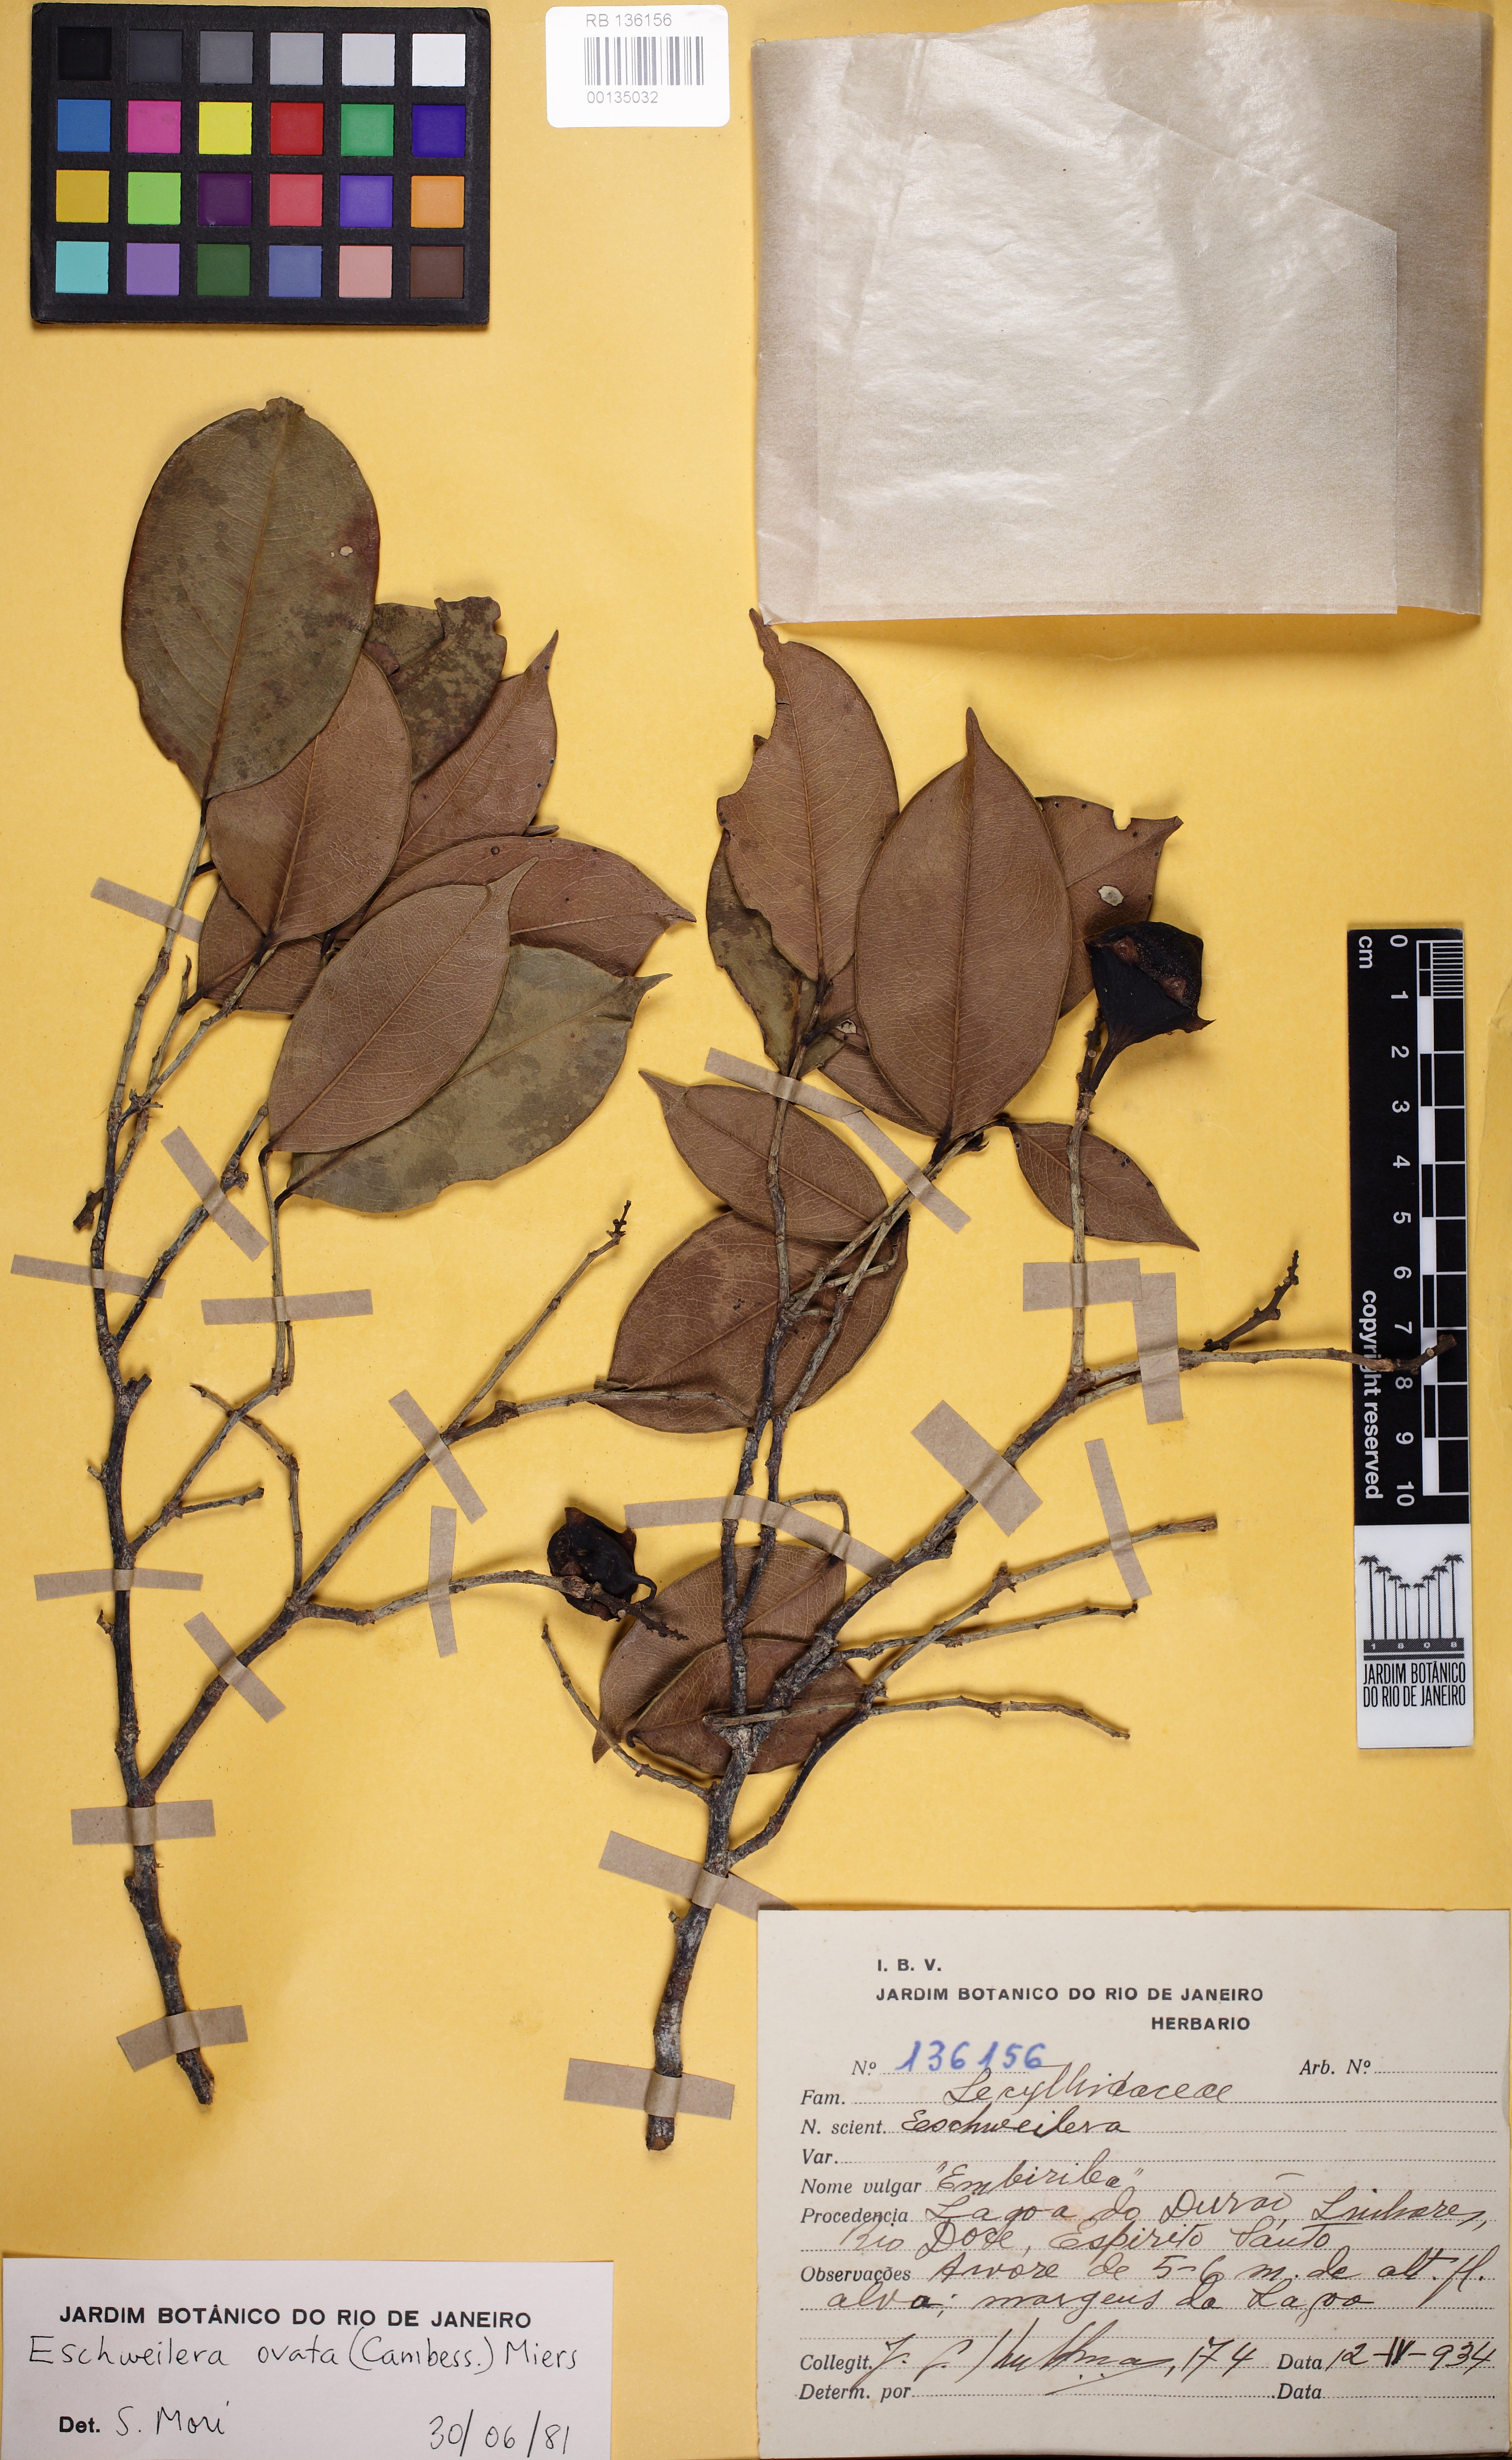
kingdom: Plantae
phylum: Tracheophyta
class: Magnoliopsida
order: Ericales
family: Lecythidaceae
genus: Eschweilera
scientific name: Eschweilera ovata
